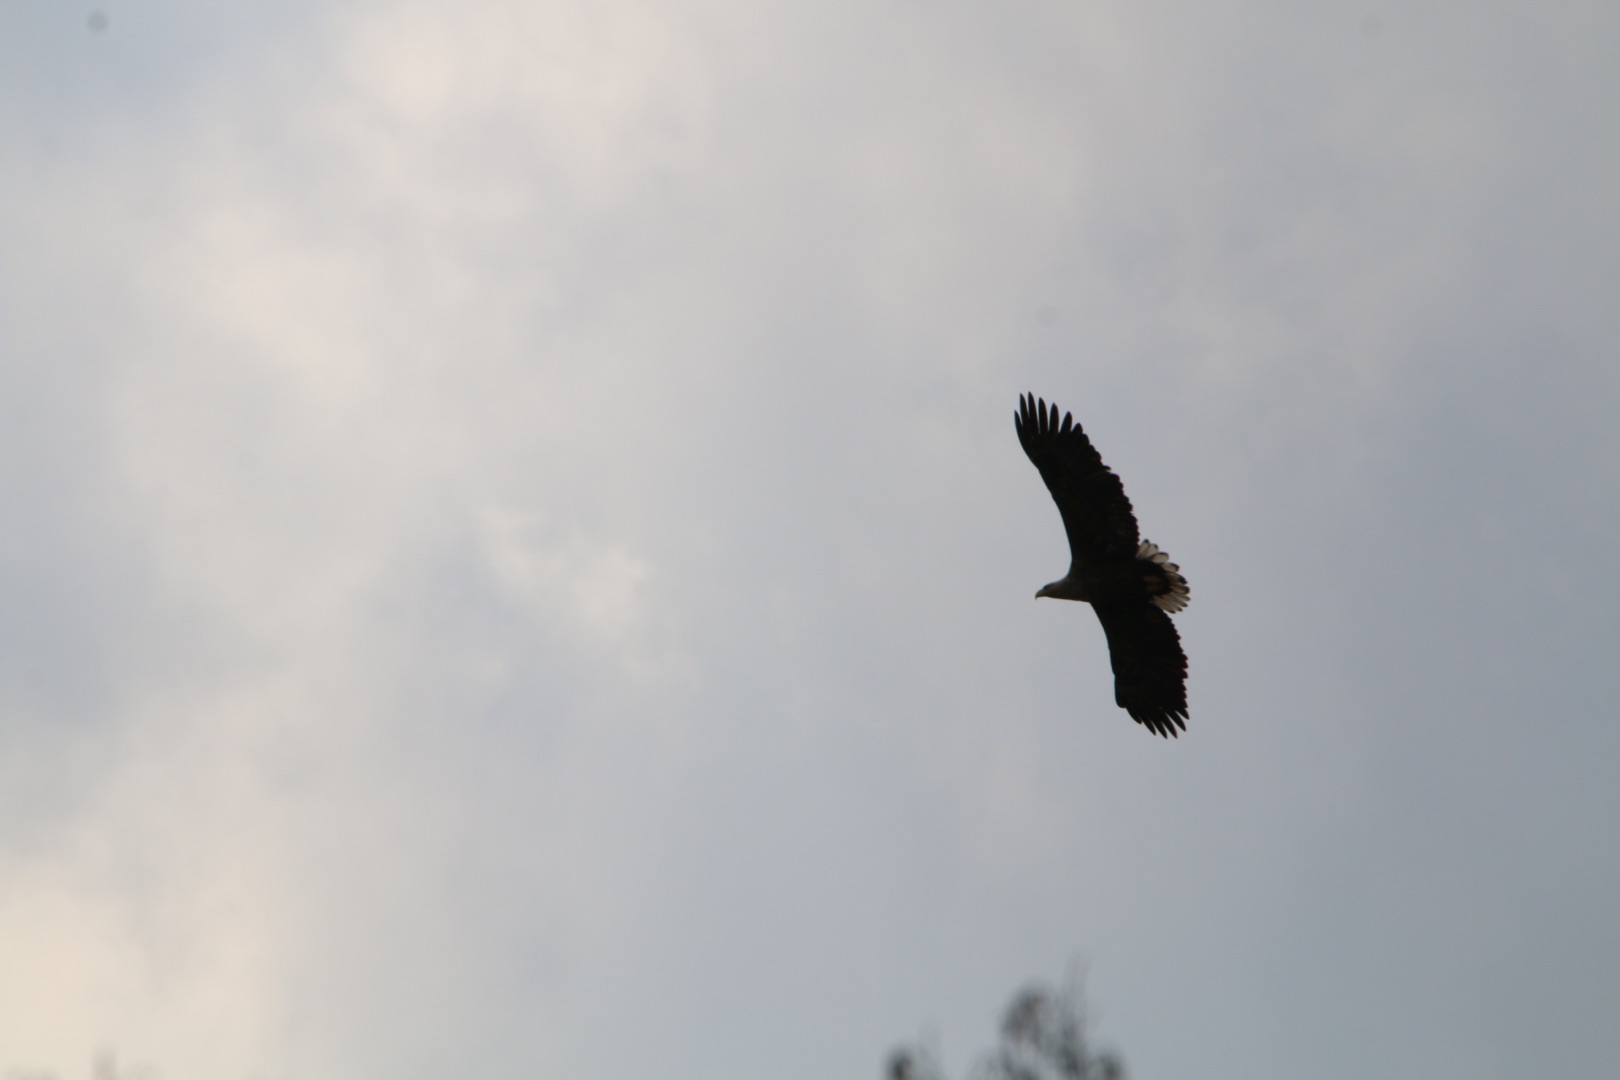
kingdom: Animalia
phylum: Chordata
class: Aves
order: Accipitriformes
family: Accipitridae
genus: Haliaeetus
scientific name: Haliaeetus albicilla
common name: Havørn
